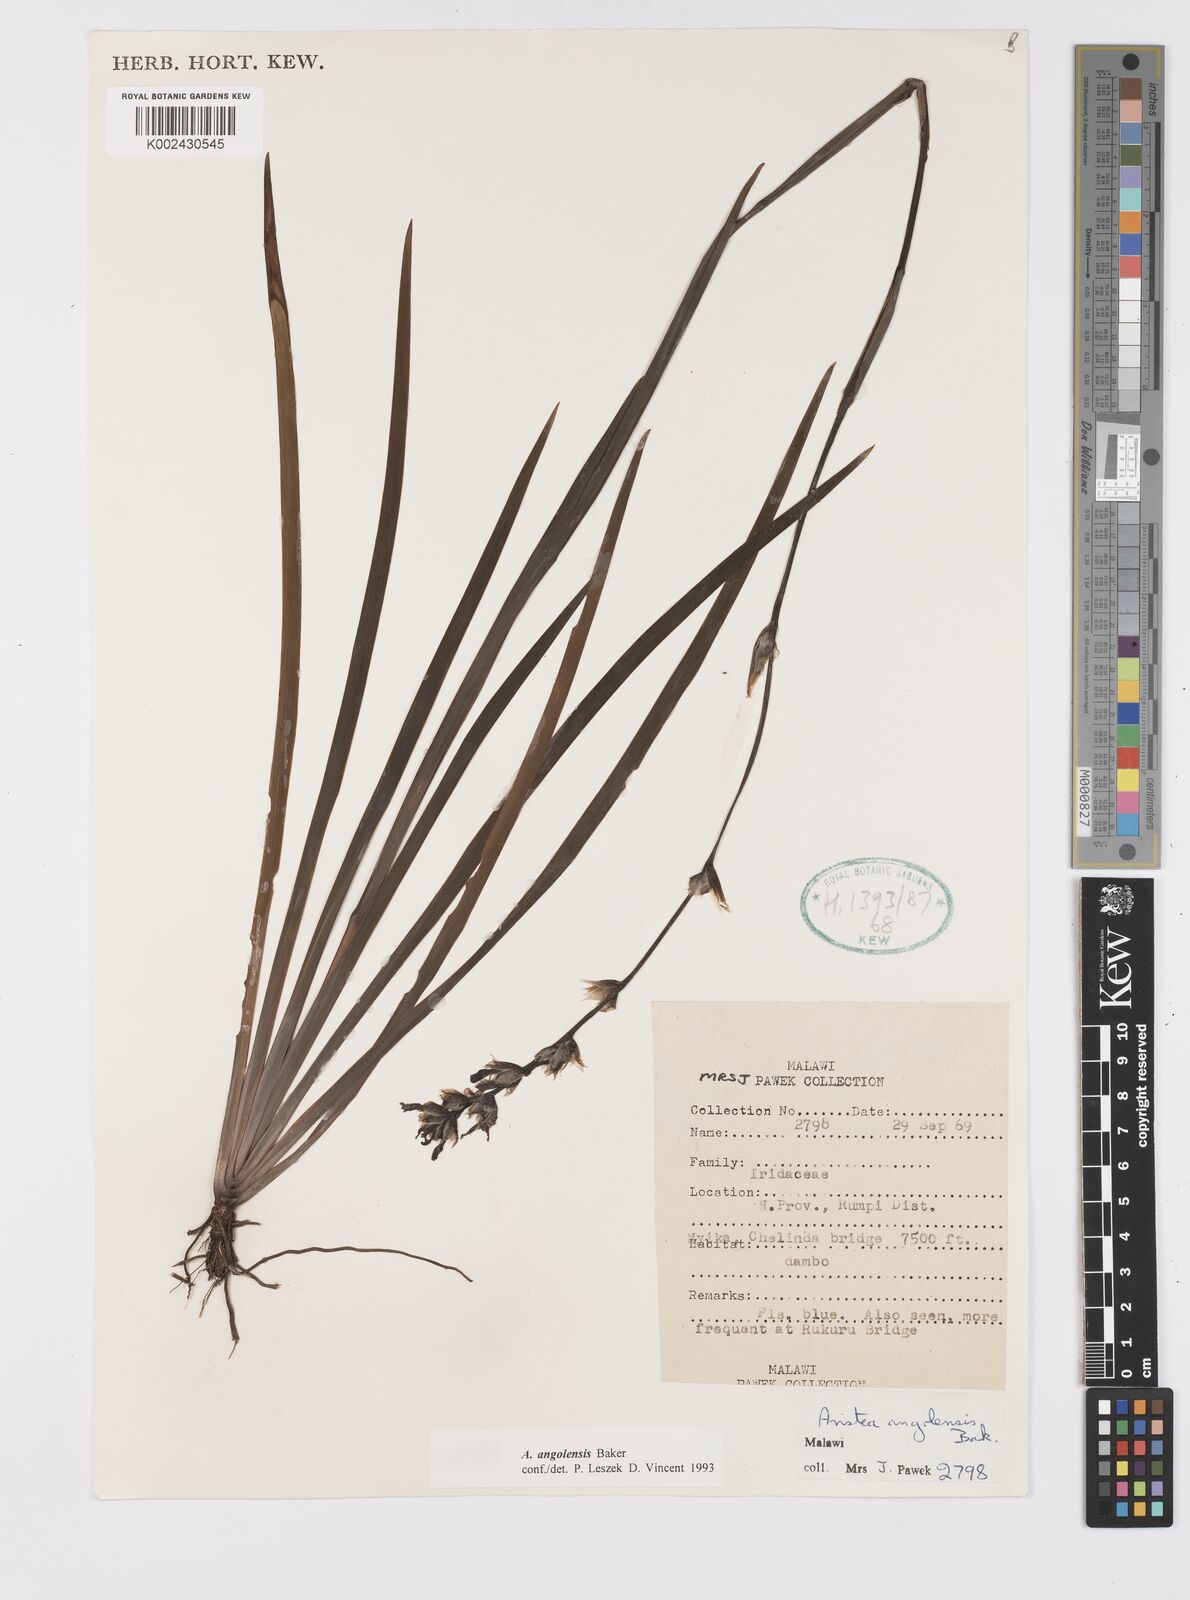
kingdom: Plantae
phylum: Tracheophyta
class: Liliopsida
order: Asparagales
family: Iridaceae
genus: Aristea
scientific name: Aristea angolensis
